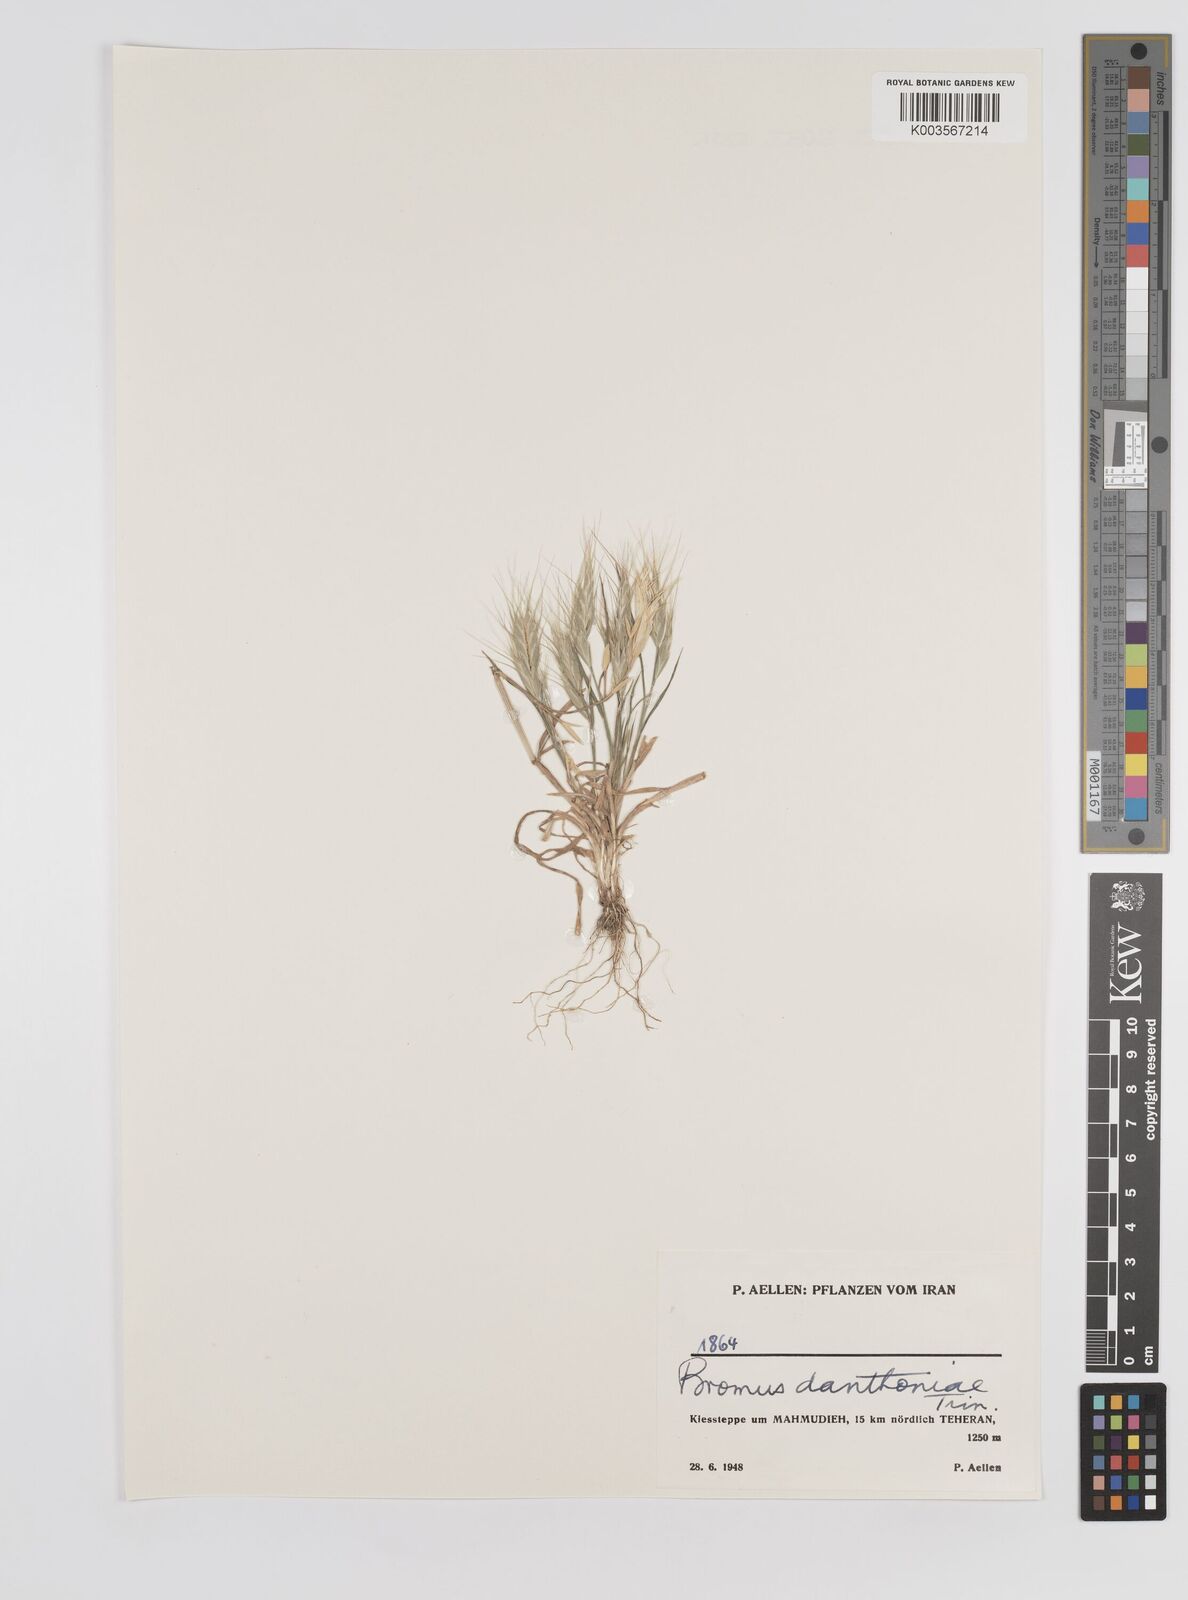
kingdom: Plantae
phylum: Tracheophyta
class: Liliopsida
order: Poales
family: Poaceae
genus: Bromus
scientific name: Bromus danthoniae
